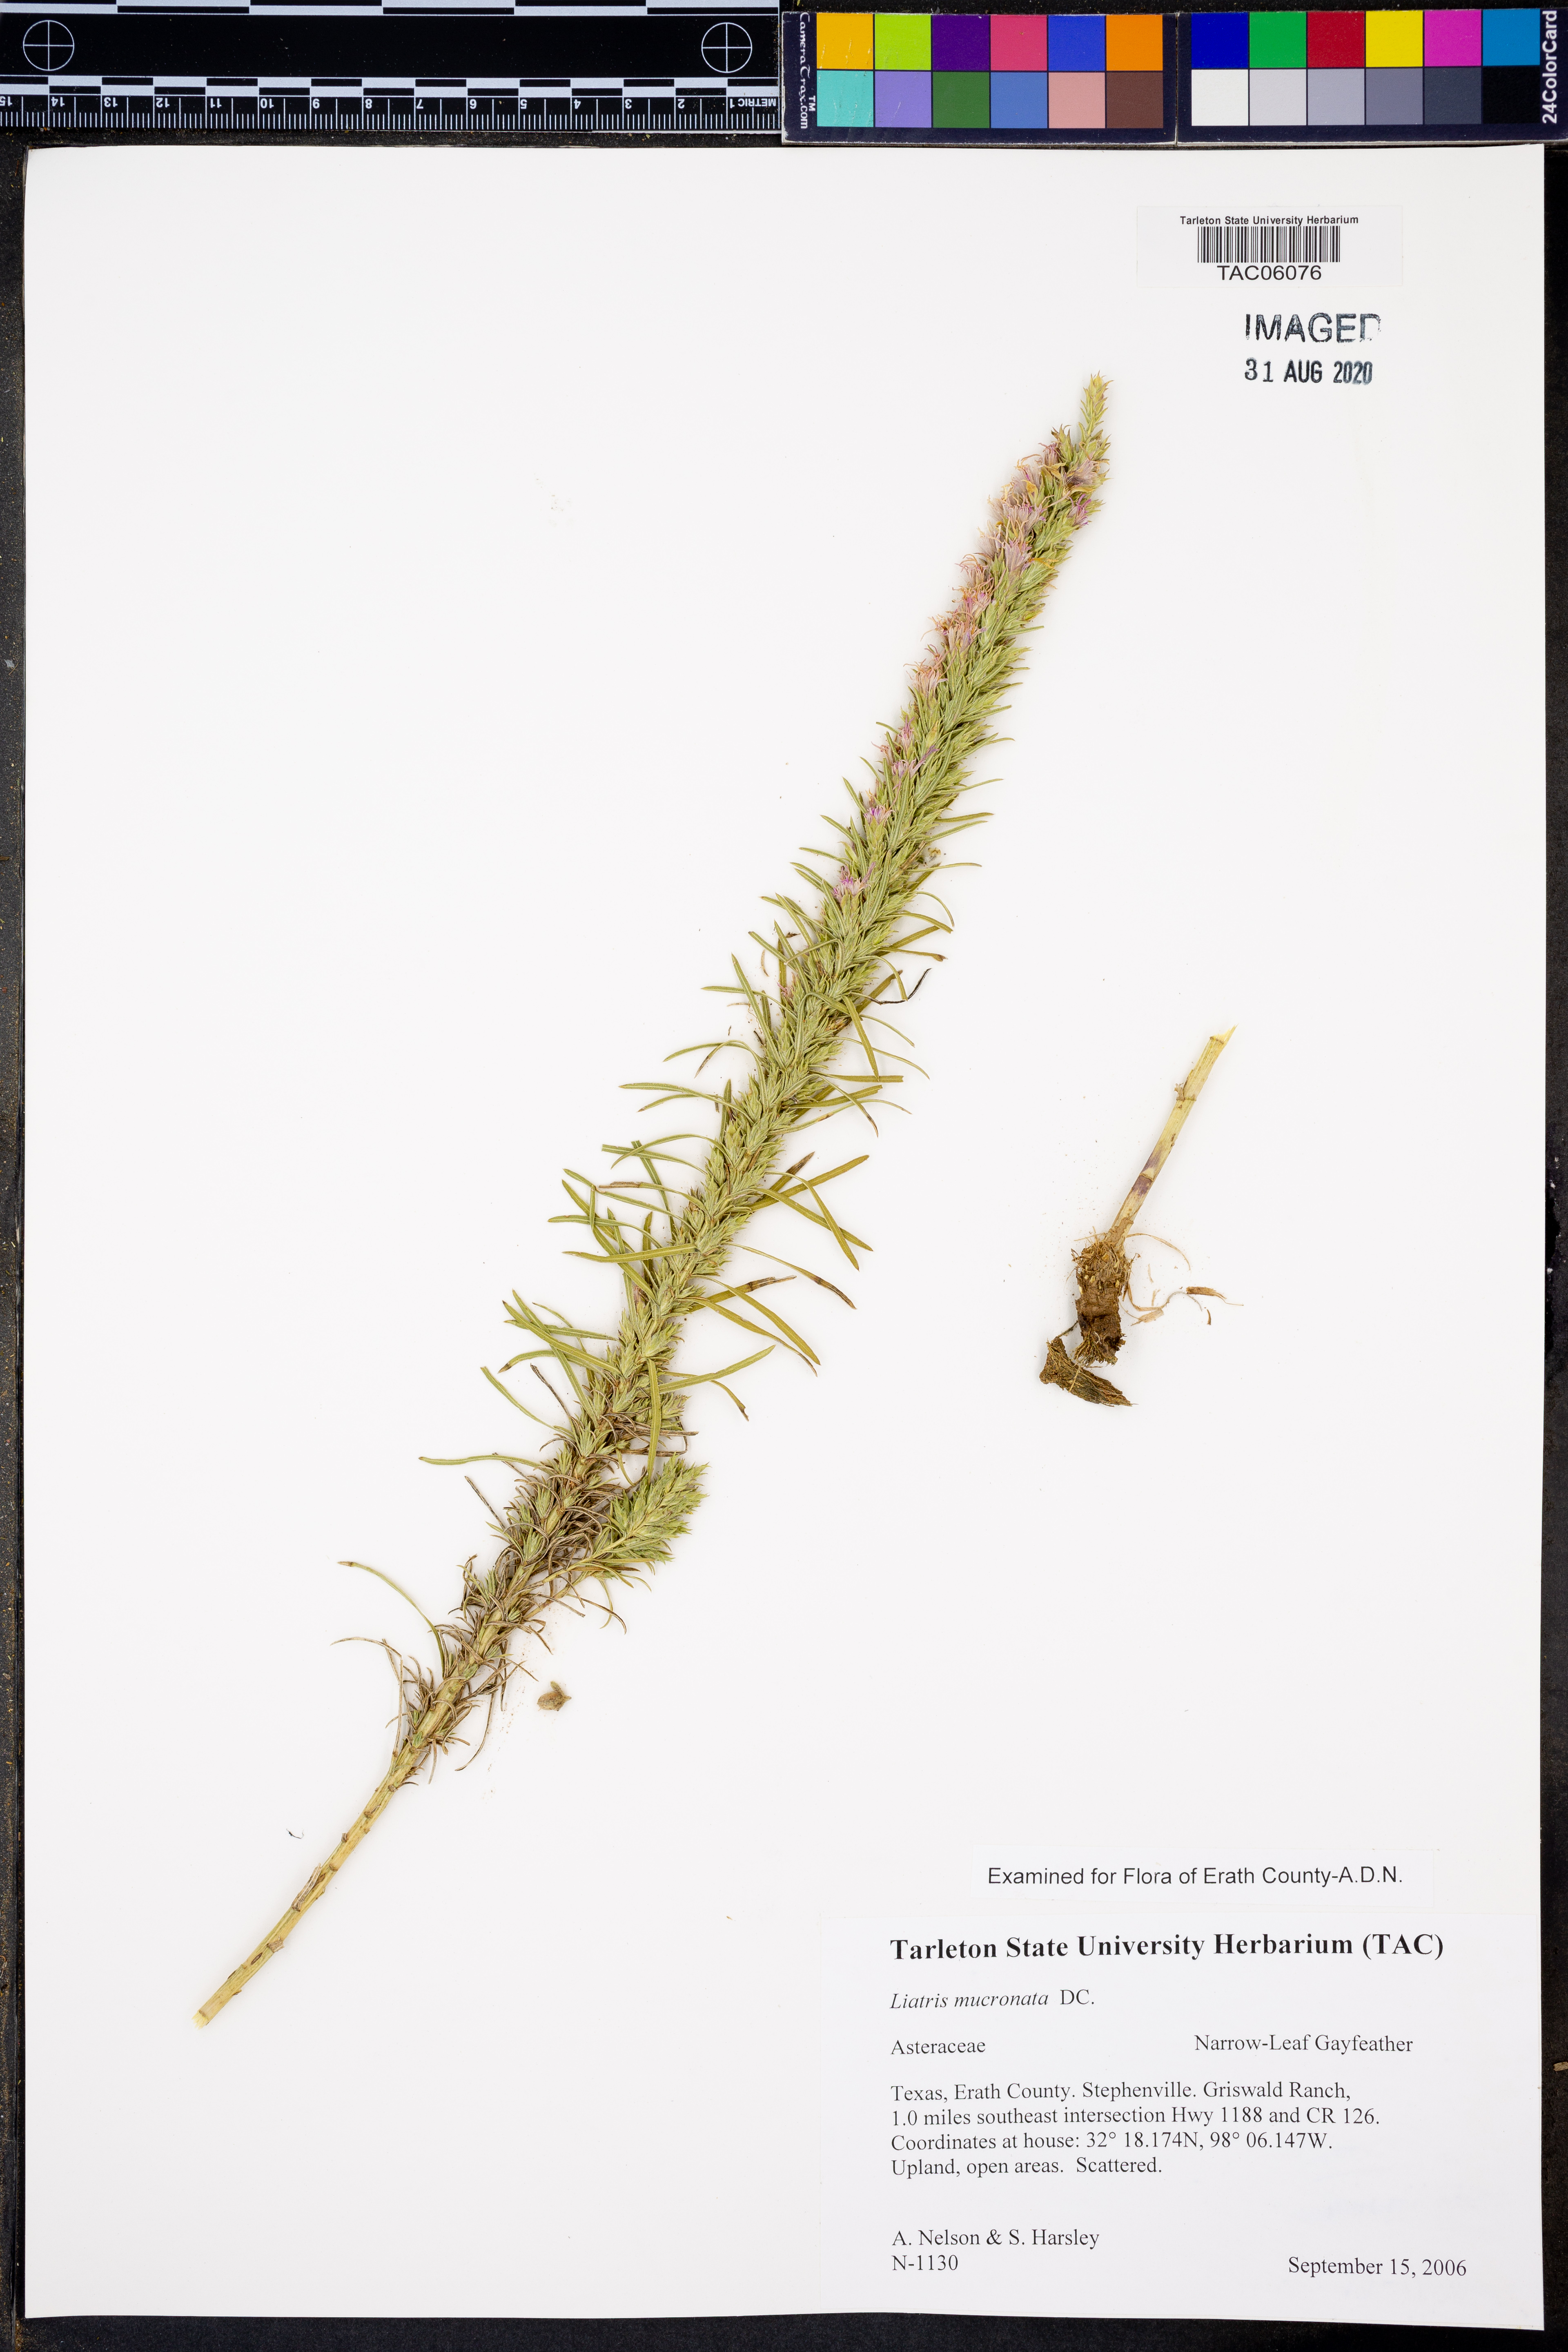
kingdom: Plantae
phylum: Tracheophyta
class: Magnoliopsida
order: Asterales
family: Asteraceae
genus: Liatris
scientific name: Liatris mucronata
